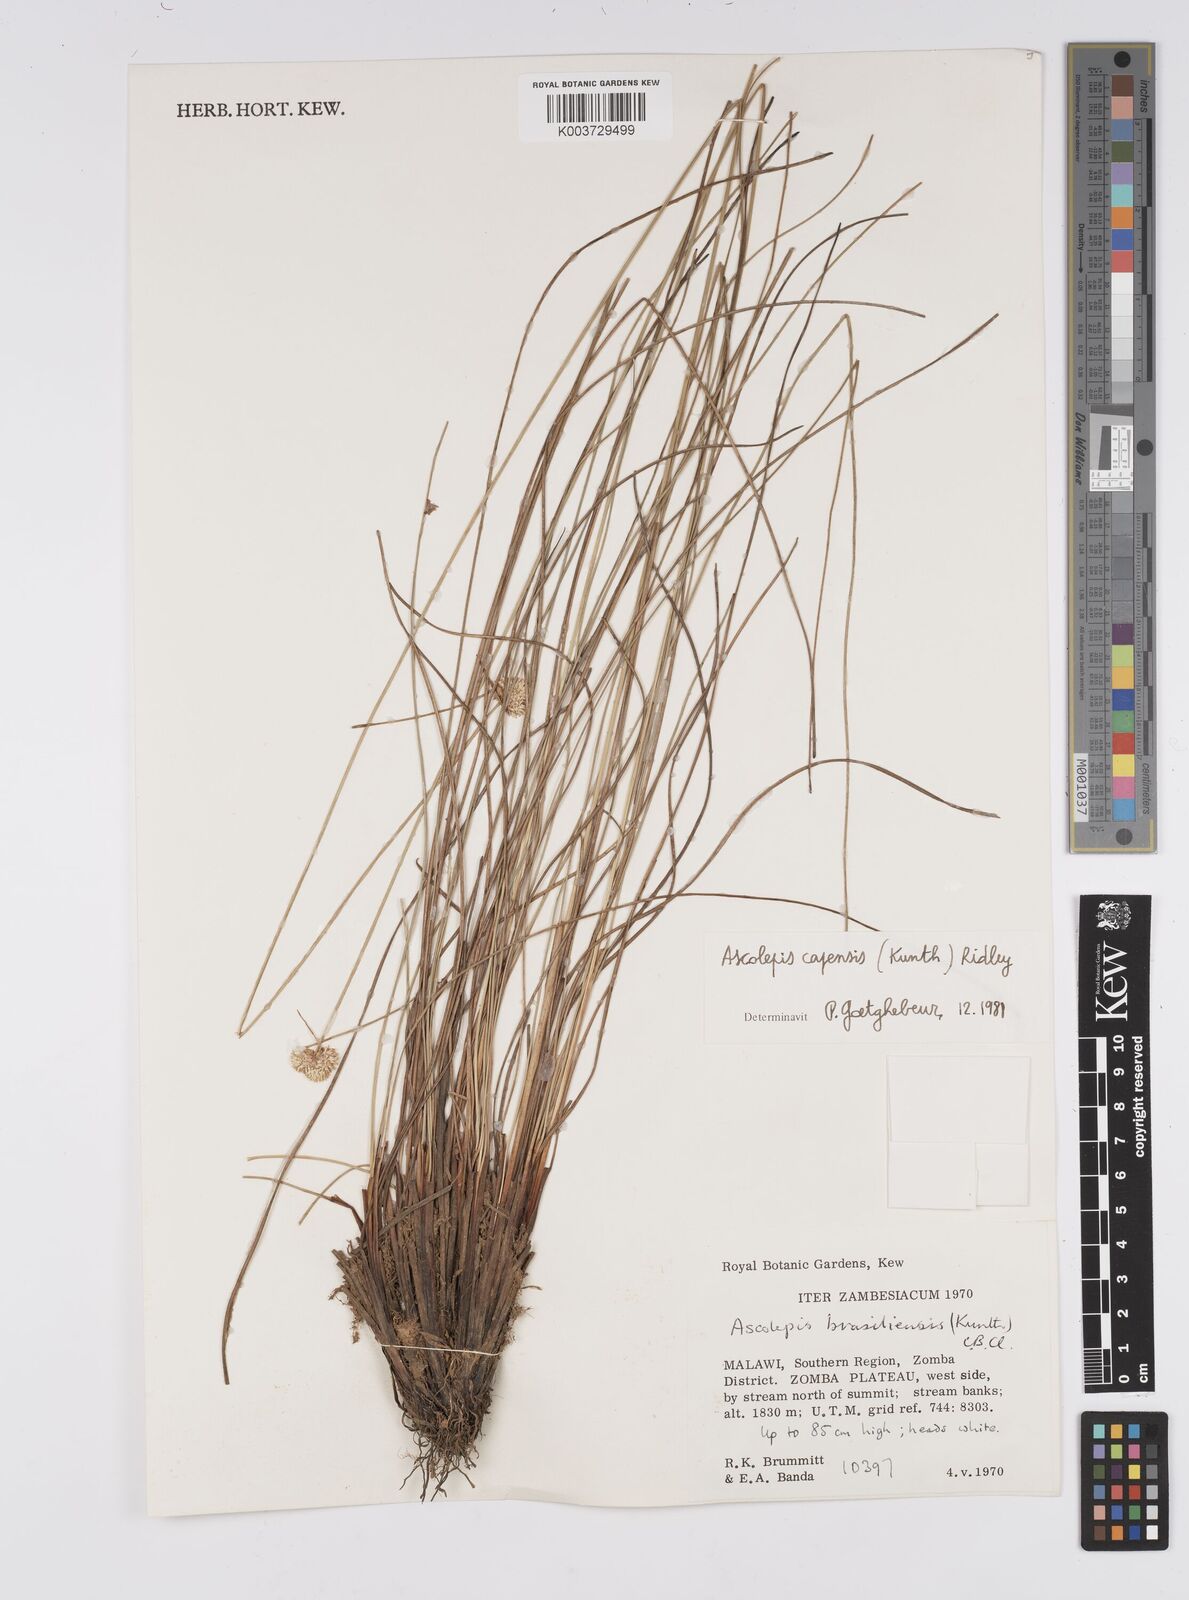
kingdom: Plantae
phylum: Tracheophyta
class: Liliopsida
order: Poales
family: Cyperaceae
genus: Cyperus
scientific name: Cyperus
